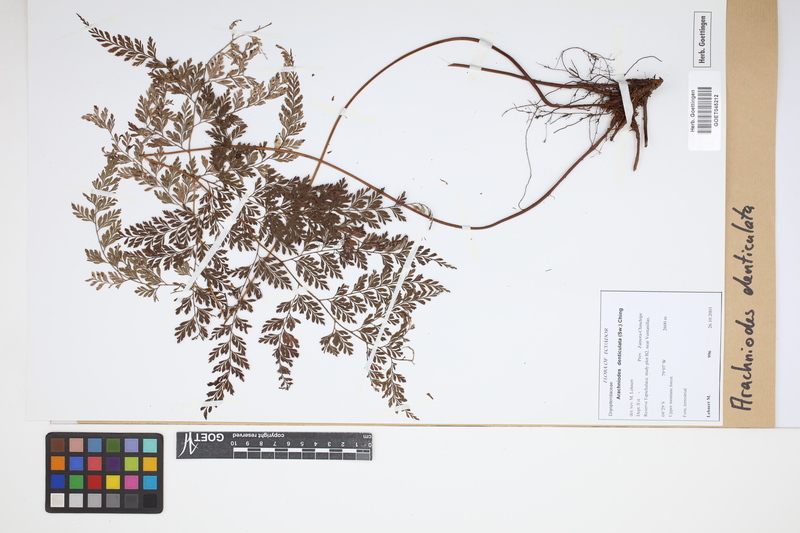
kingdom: Plantae
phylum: Tracheophyta
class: Polypodiopsida
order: Polypodiales
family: Dryopteridaceae
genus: Arachniodes
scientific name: Arachniodes denticulata
